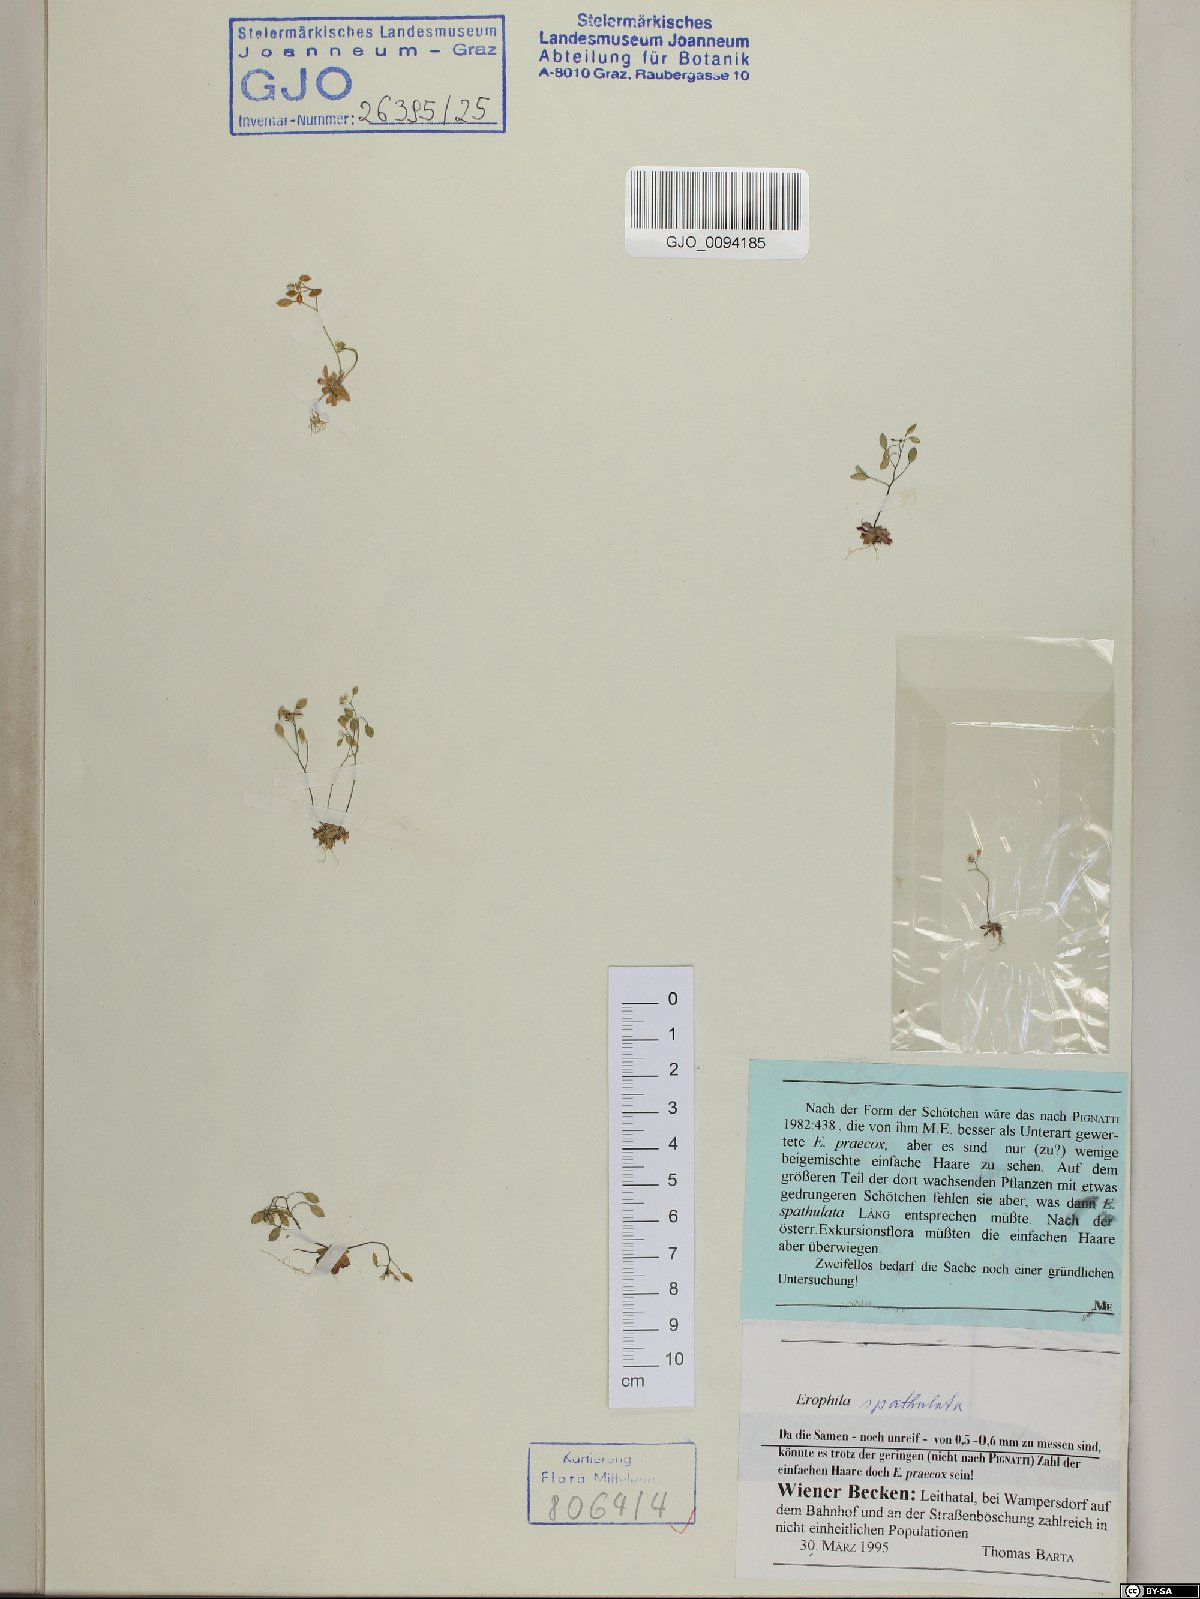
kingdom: Plantae
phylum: Tracheophyta
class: Magnoliopsida
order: Brassicales
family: Brassicaceae
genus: Draba
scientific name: Draba verna
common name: Spring draba
